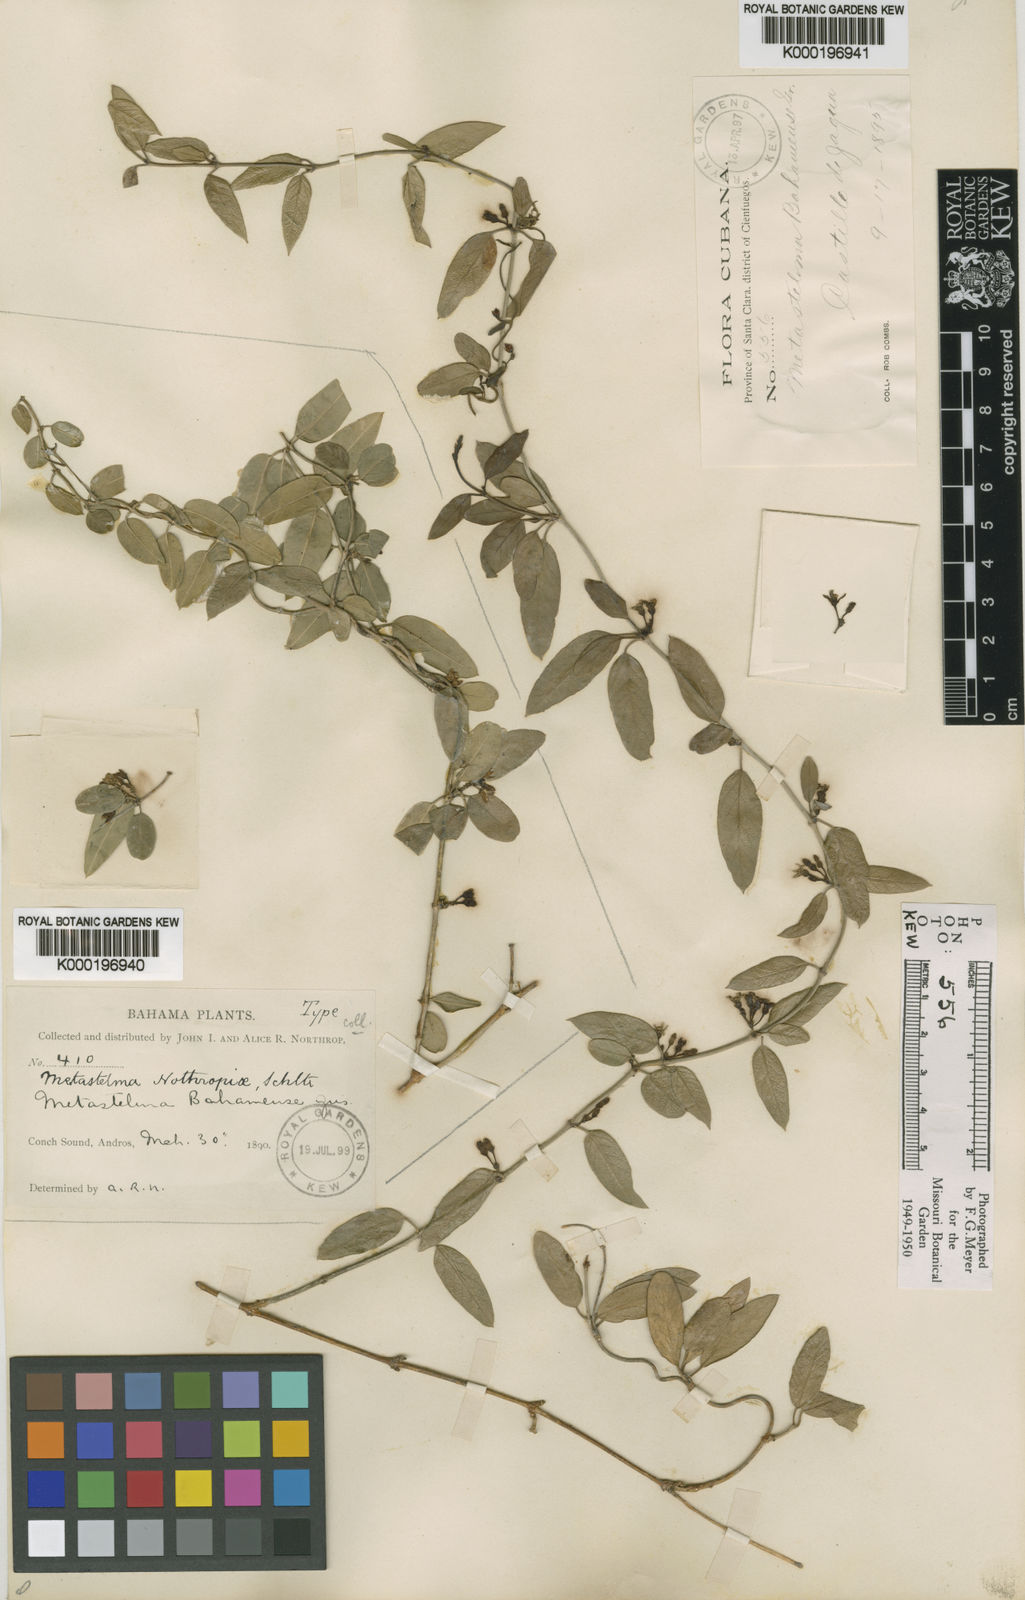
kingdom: Plantae
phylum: Tracheophyta
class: Magnoliopsida
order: Gentianales
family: Apocynaceae
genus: Metastelma
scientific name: Metastelma northropiae
